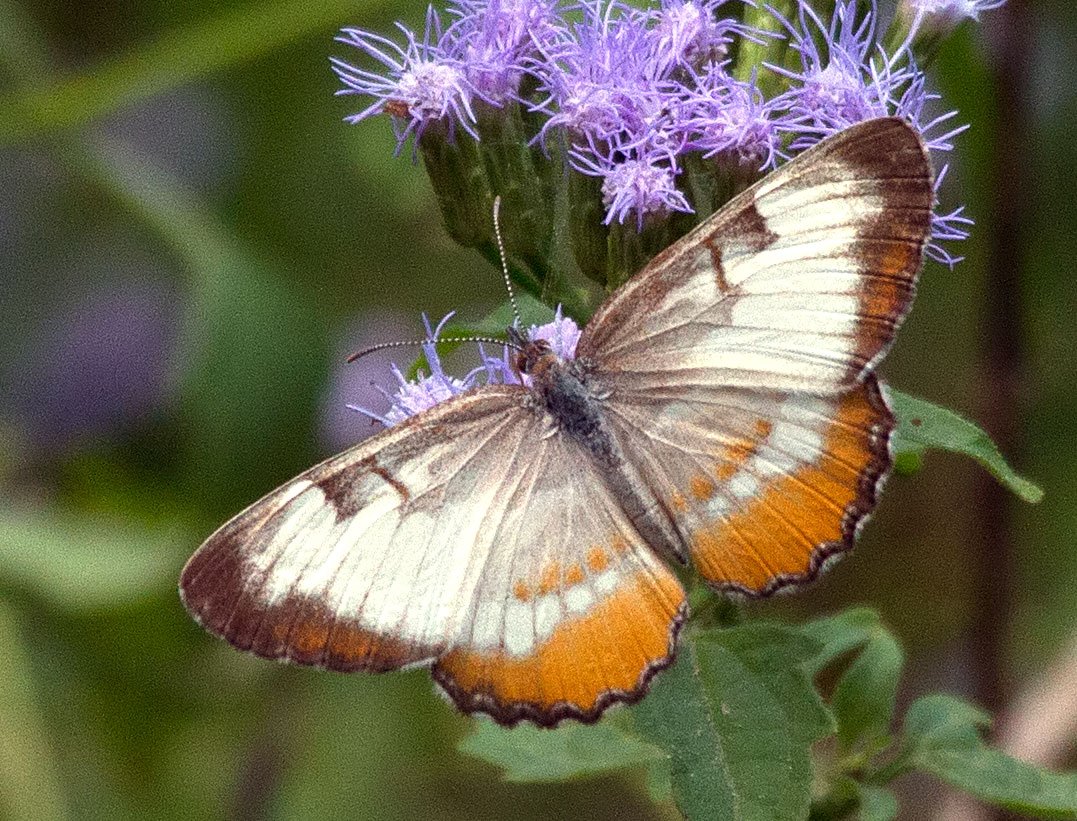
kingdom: Animalia
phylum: Arthropoda
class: Insecta
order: Lepidoptera
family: Nymphalidae
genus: Mestra
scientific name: Mestra amymone
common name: Common Mestra
